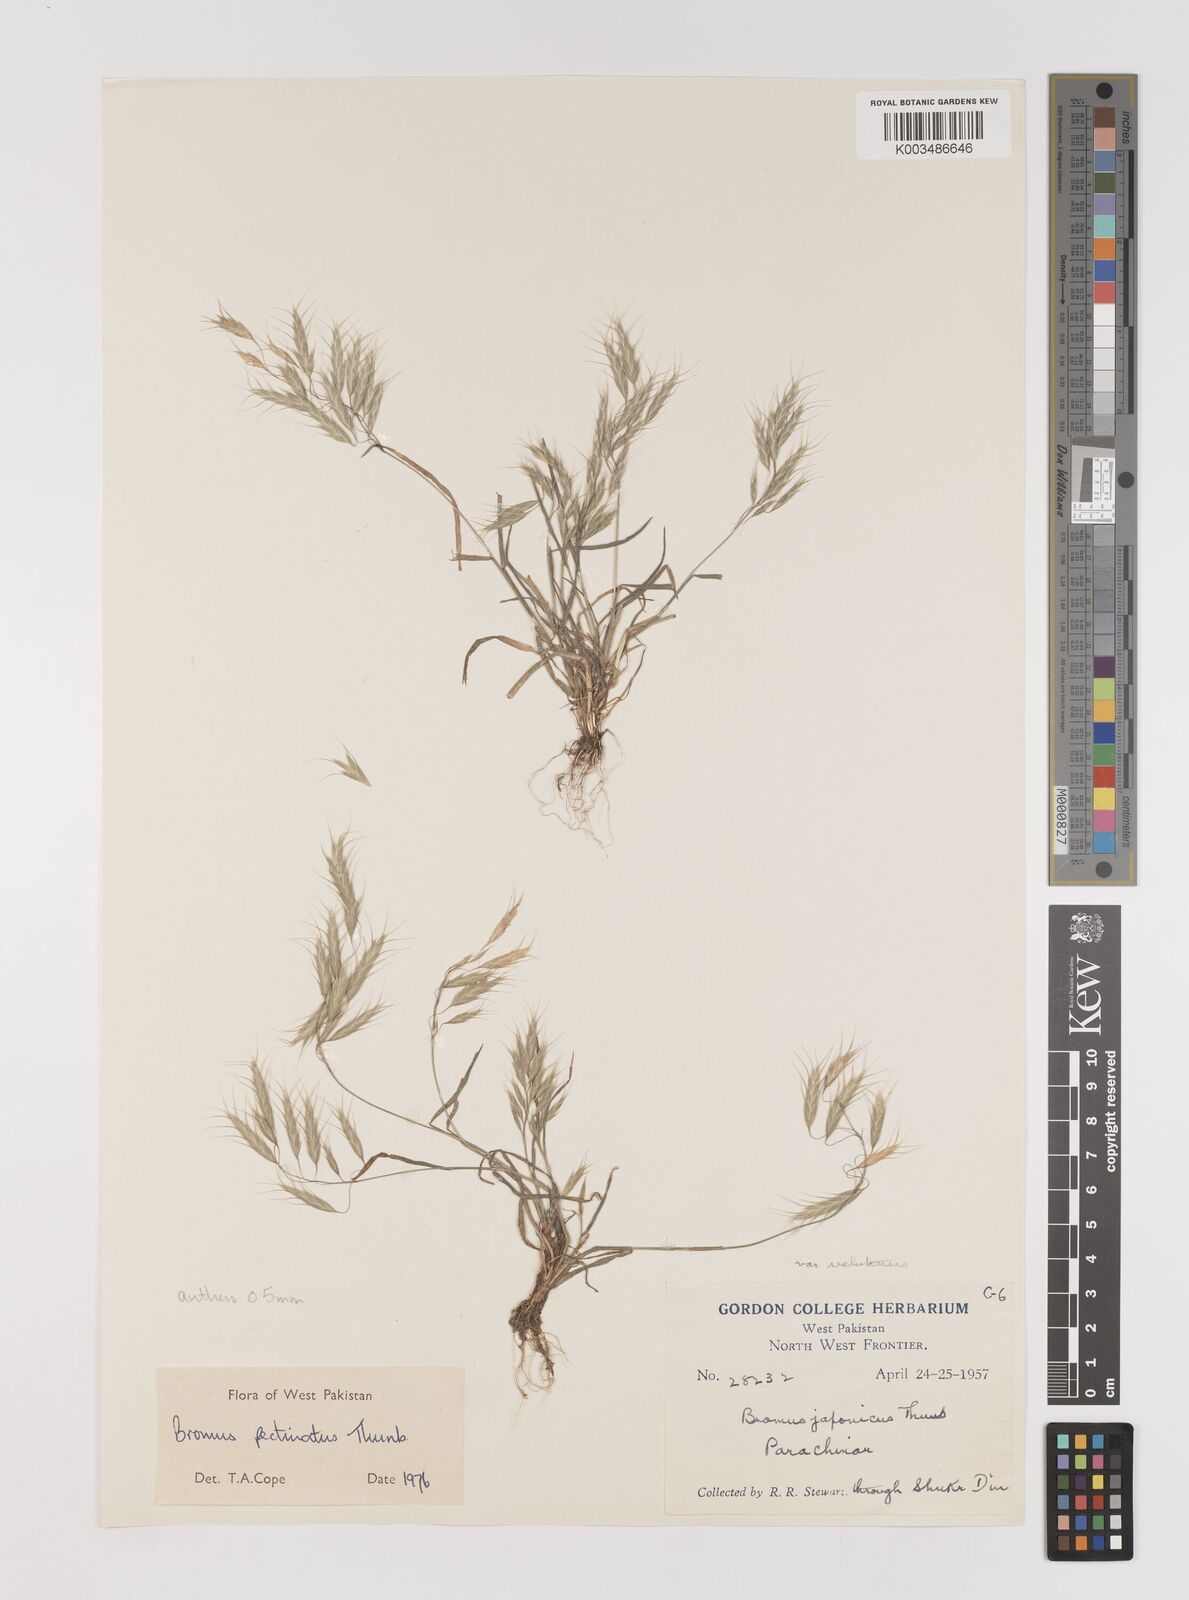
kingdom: Plantae
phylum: Tracheophyta
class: Liliopsida
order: Poales
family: Poaceae
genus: Bromus
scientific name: Bromus pectinatus
